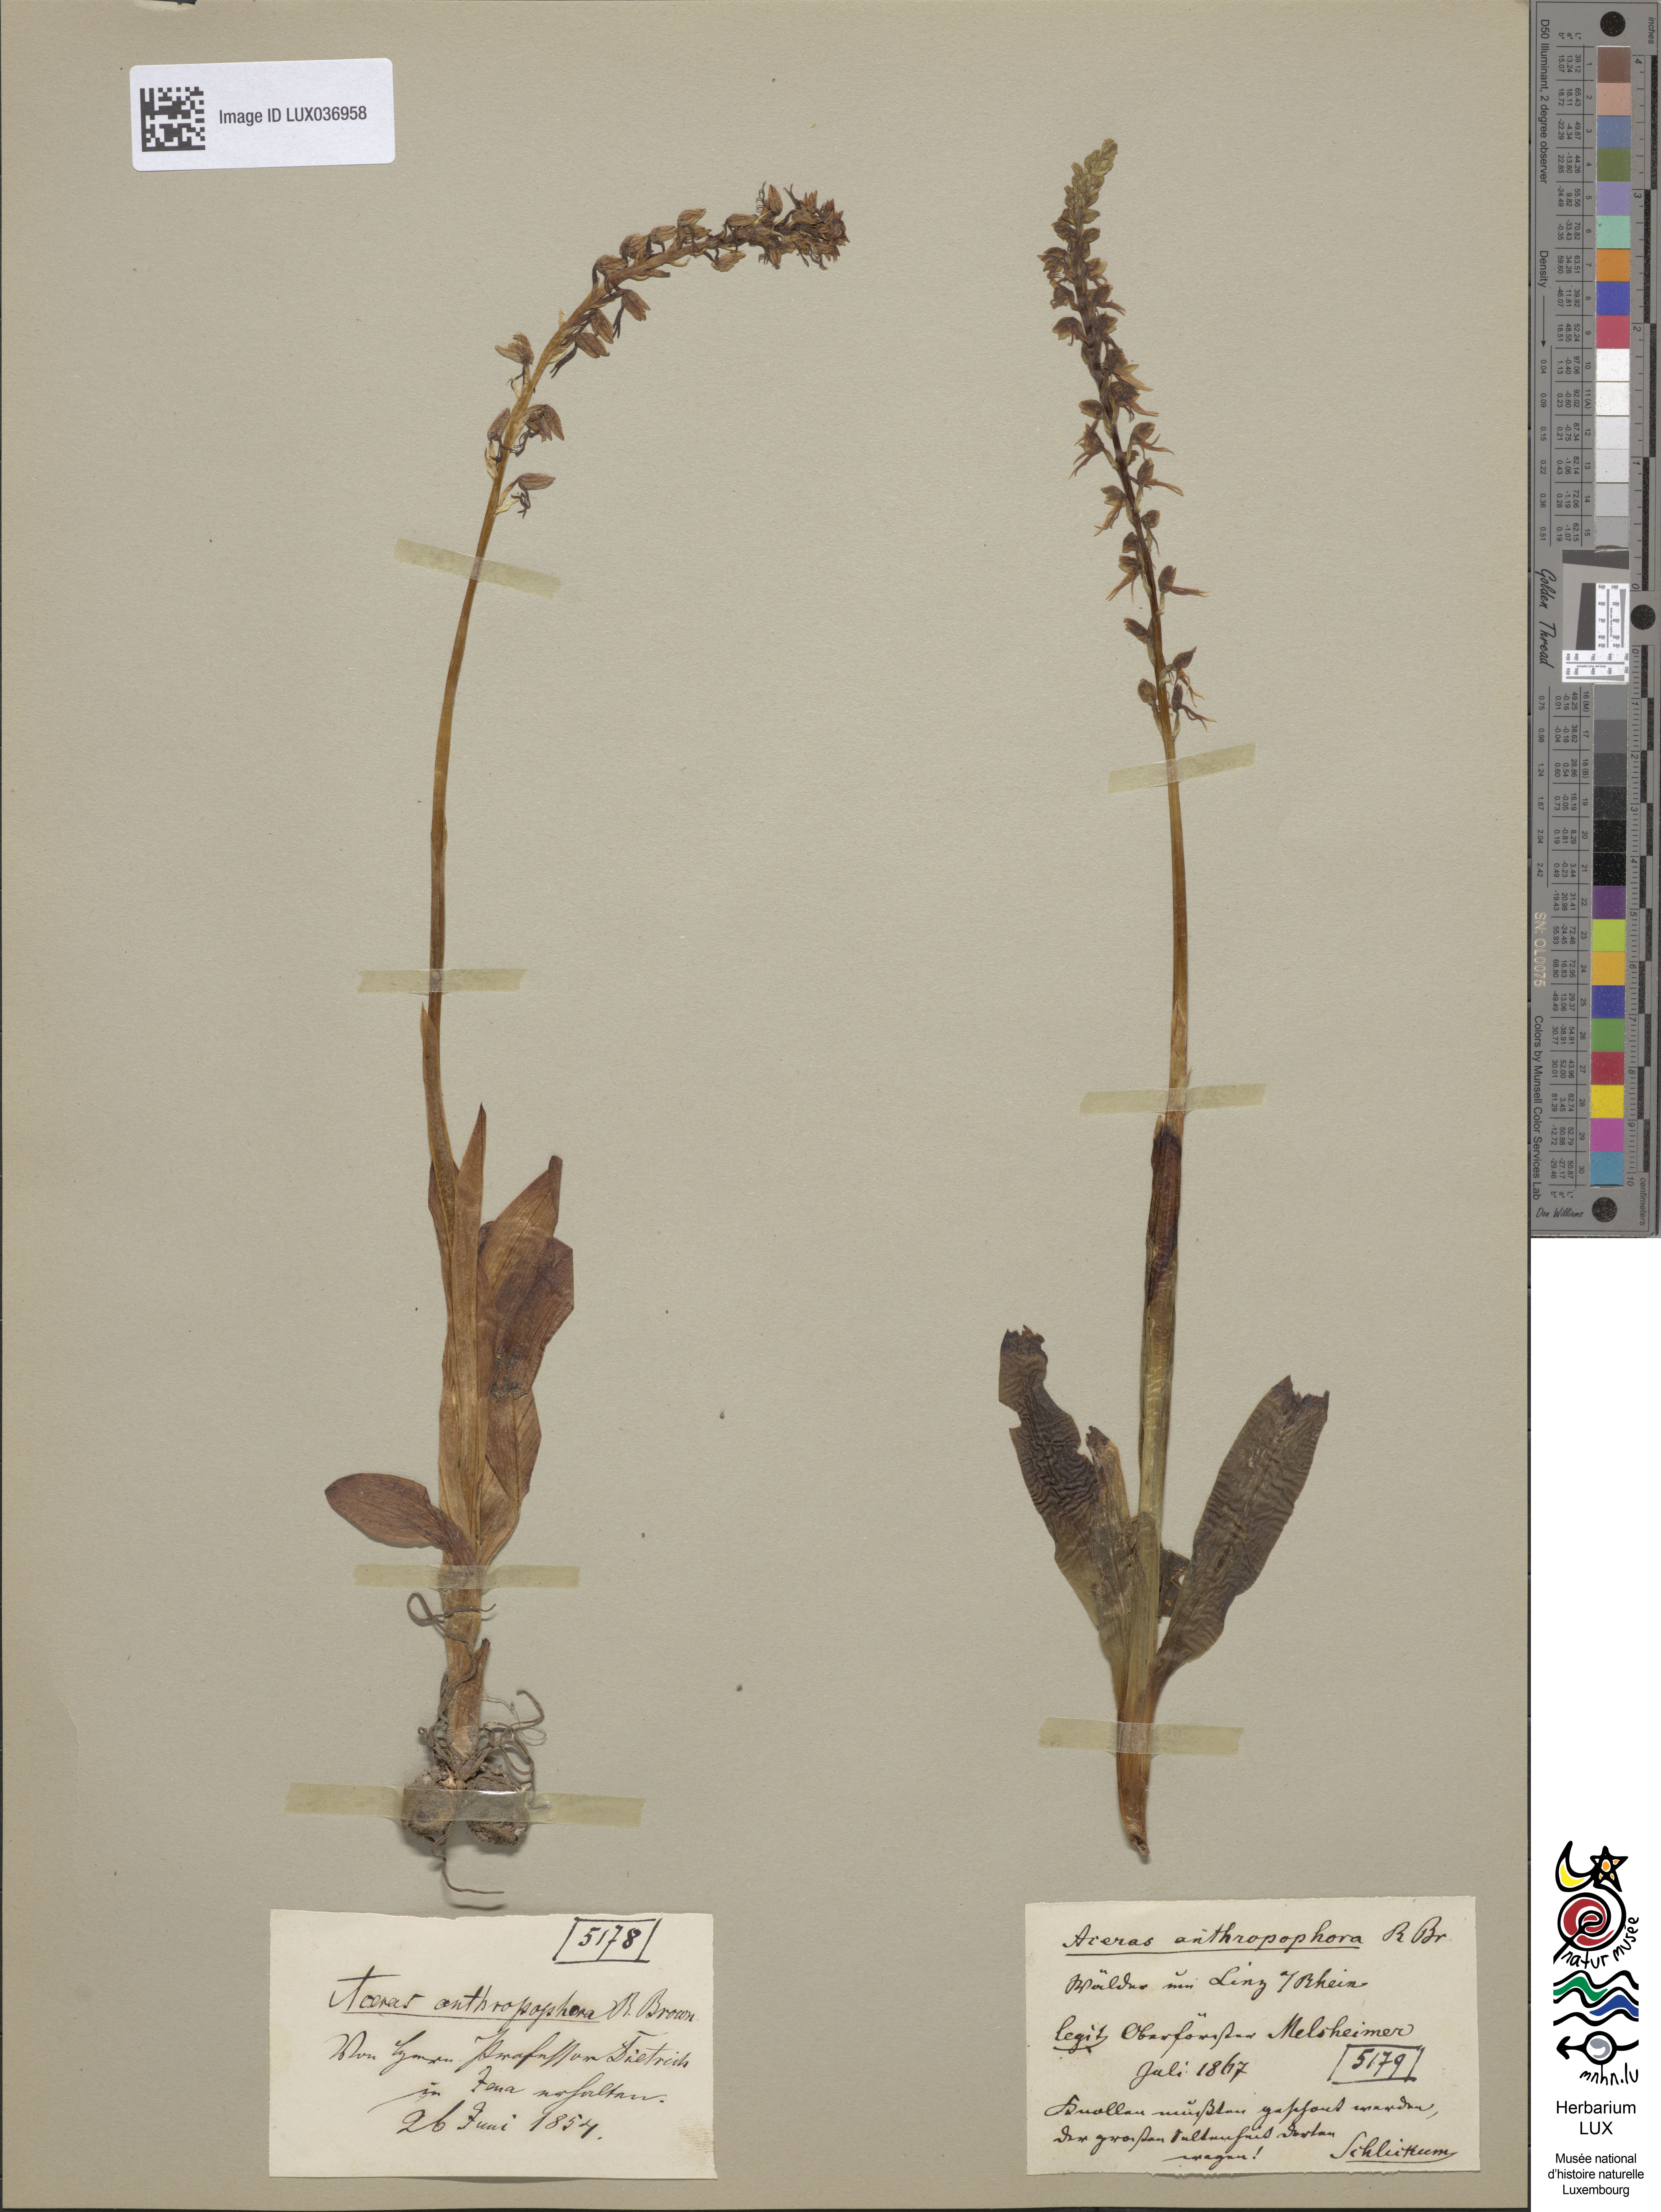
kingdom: Plantae
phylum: Tracheophyta
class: Liliopsida
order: Asparagales
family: Orchidaceae
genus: Orchis
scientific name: Orchis anthropophora
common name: Man orchid
